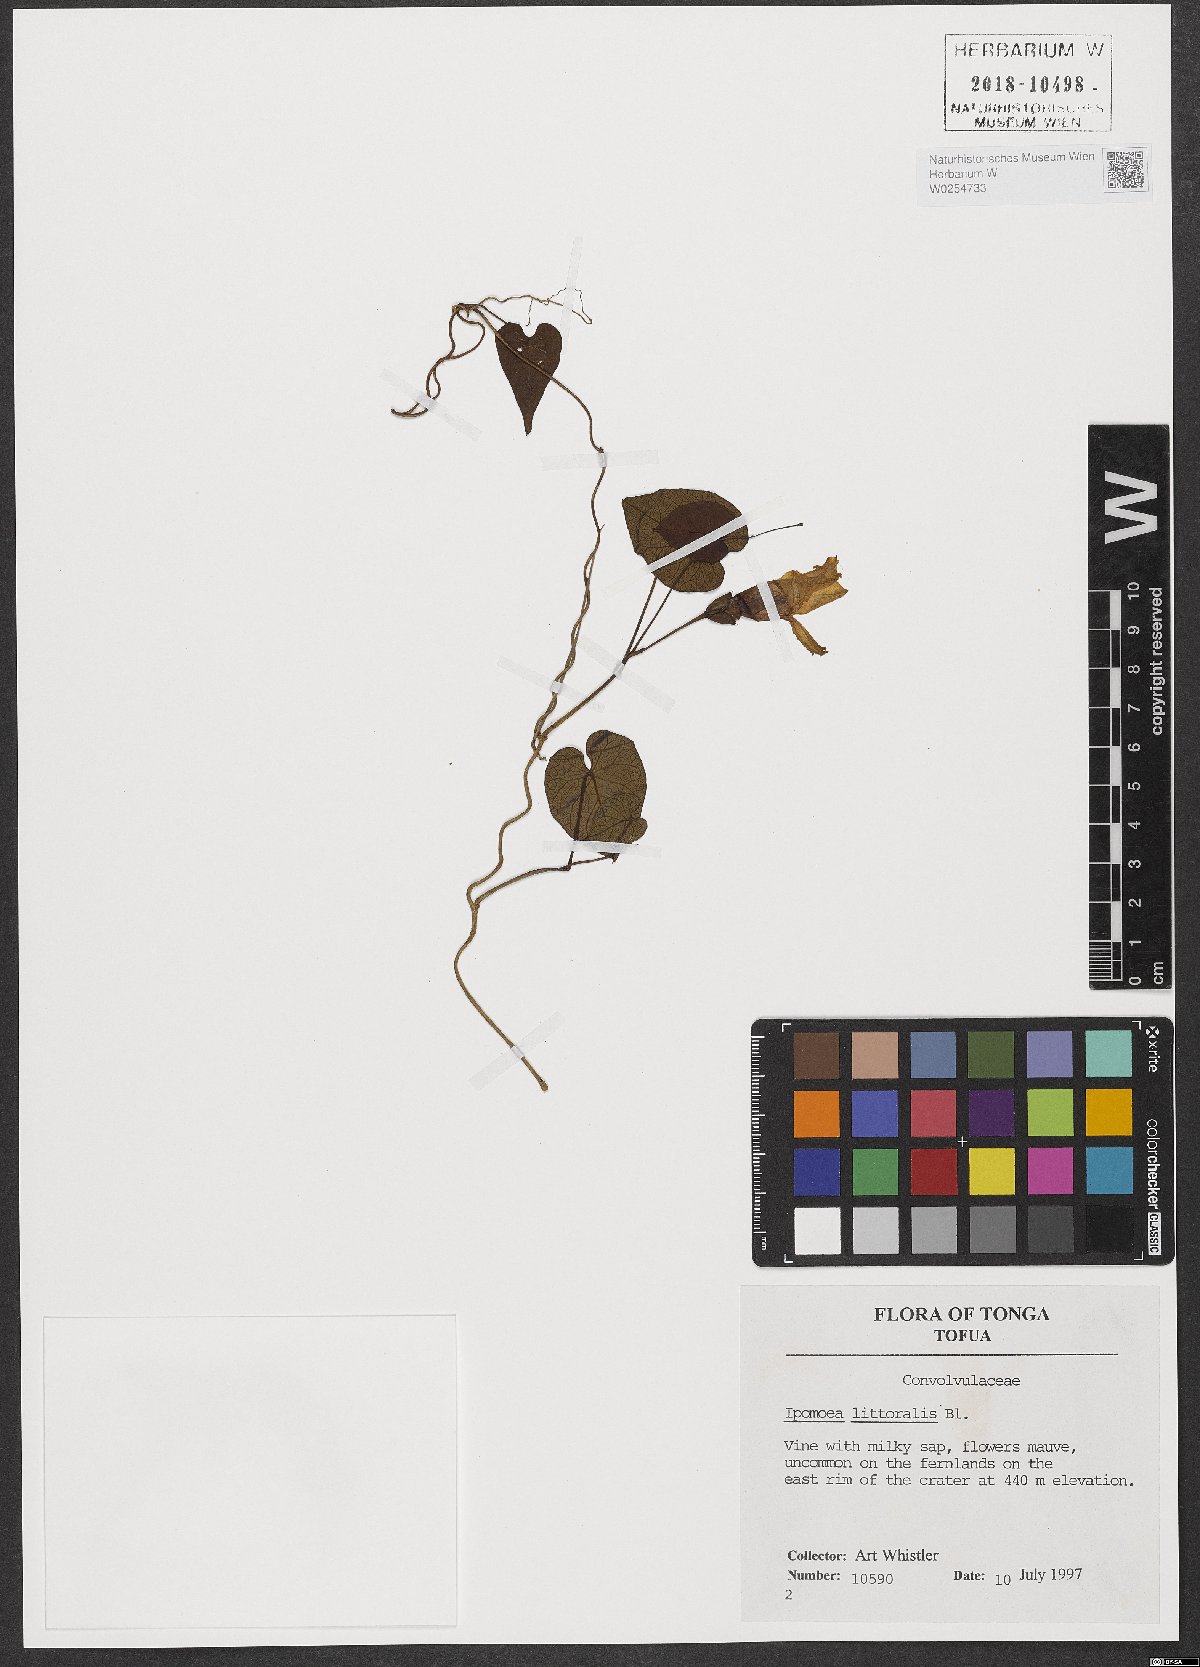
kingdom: Plantae
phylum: Tracheophyta
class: Magnoliopsida
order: Solanales
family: Convolvulaceae
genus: Ipomoea
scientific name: Ipomoea imperati
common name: Fiddle-leaf morning-glory
